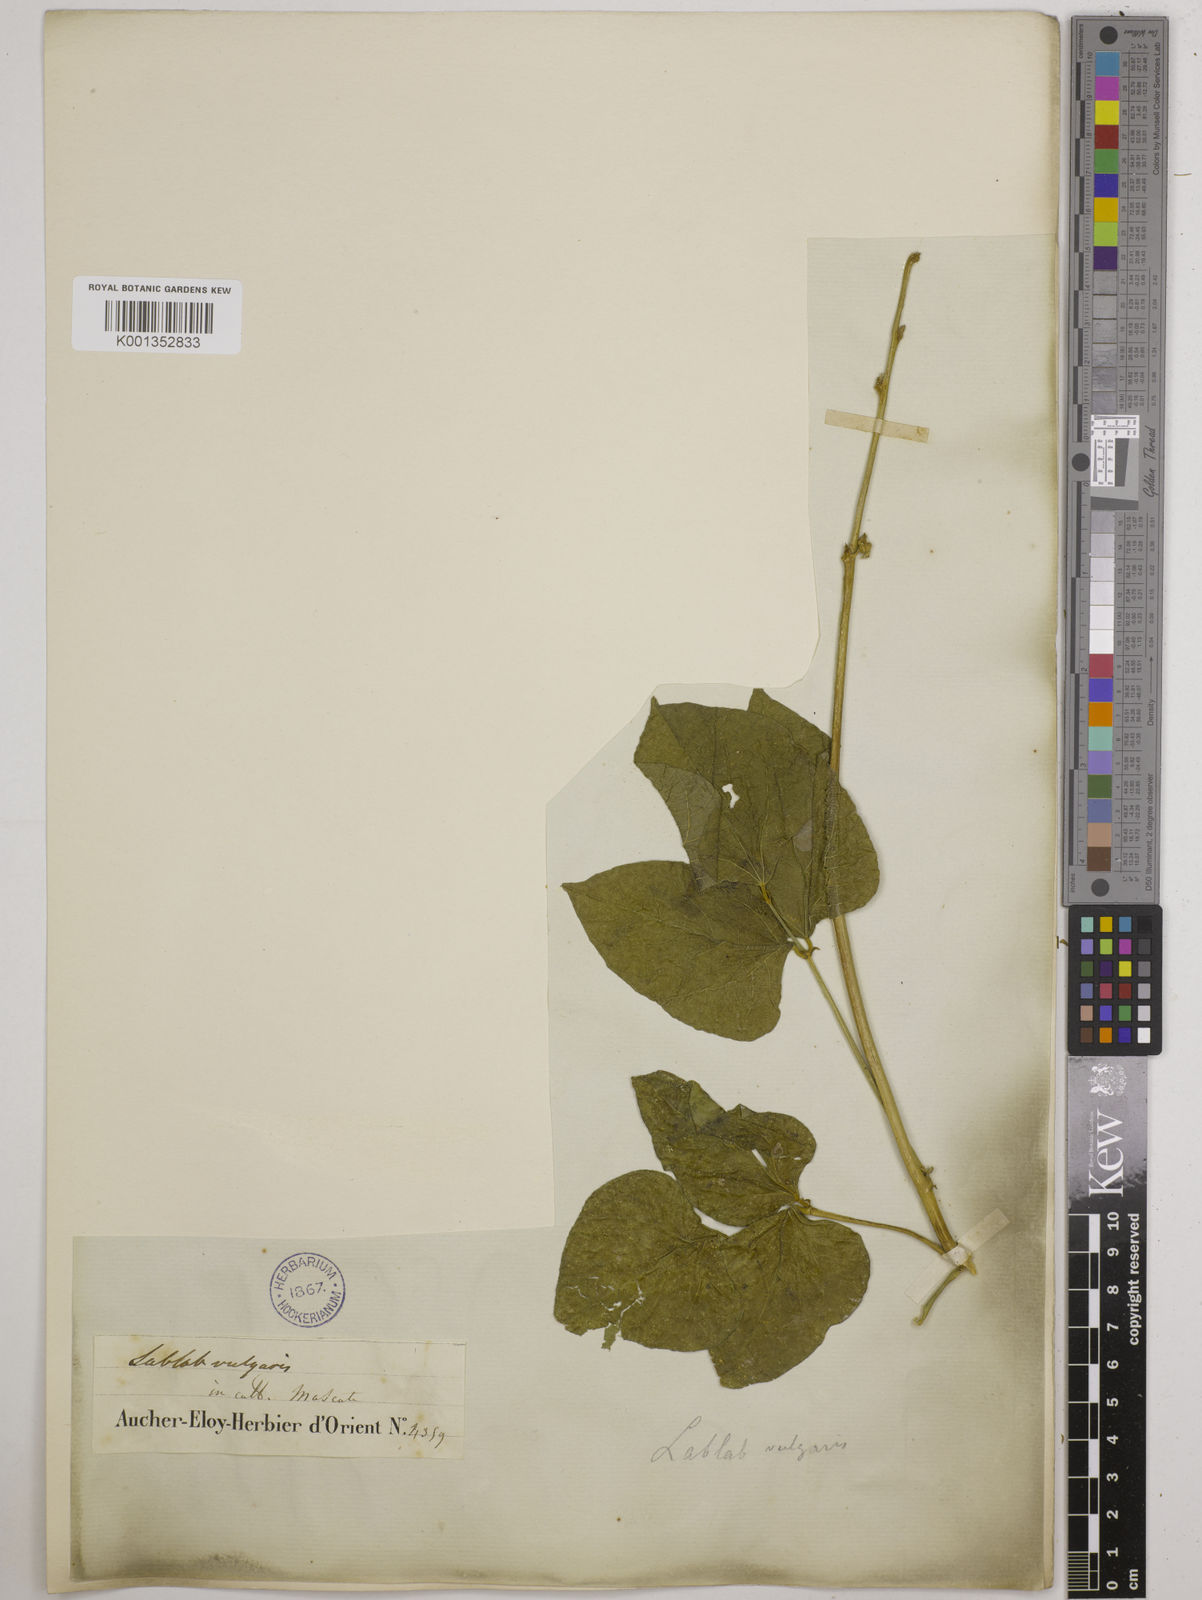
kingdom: Plantae
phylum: Tracheophyta
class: Magnoliopsida
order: Fabales
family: Fabaceae
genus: Lablab
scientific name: Lablab purpureus
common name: Lablab-bean
